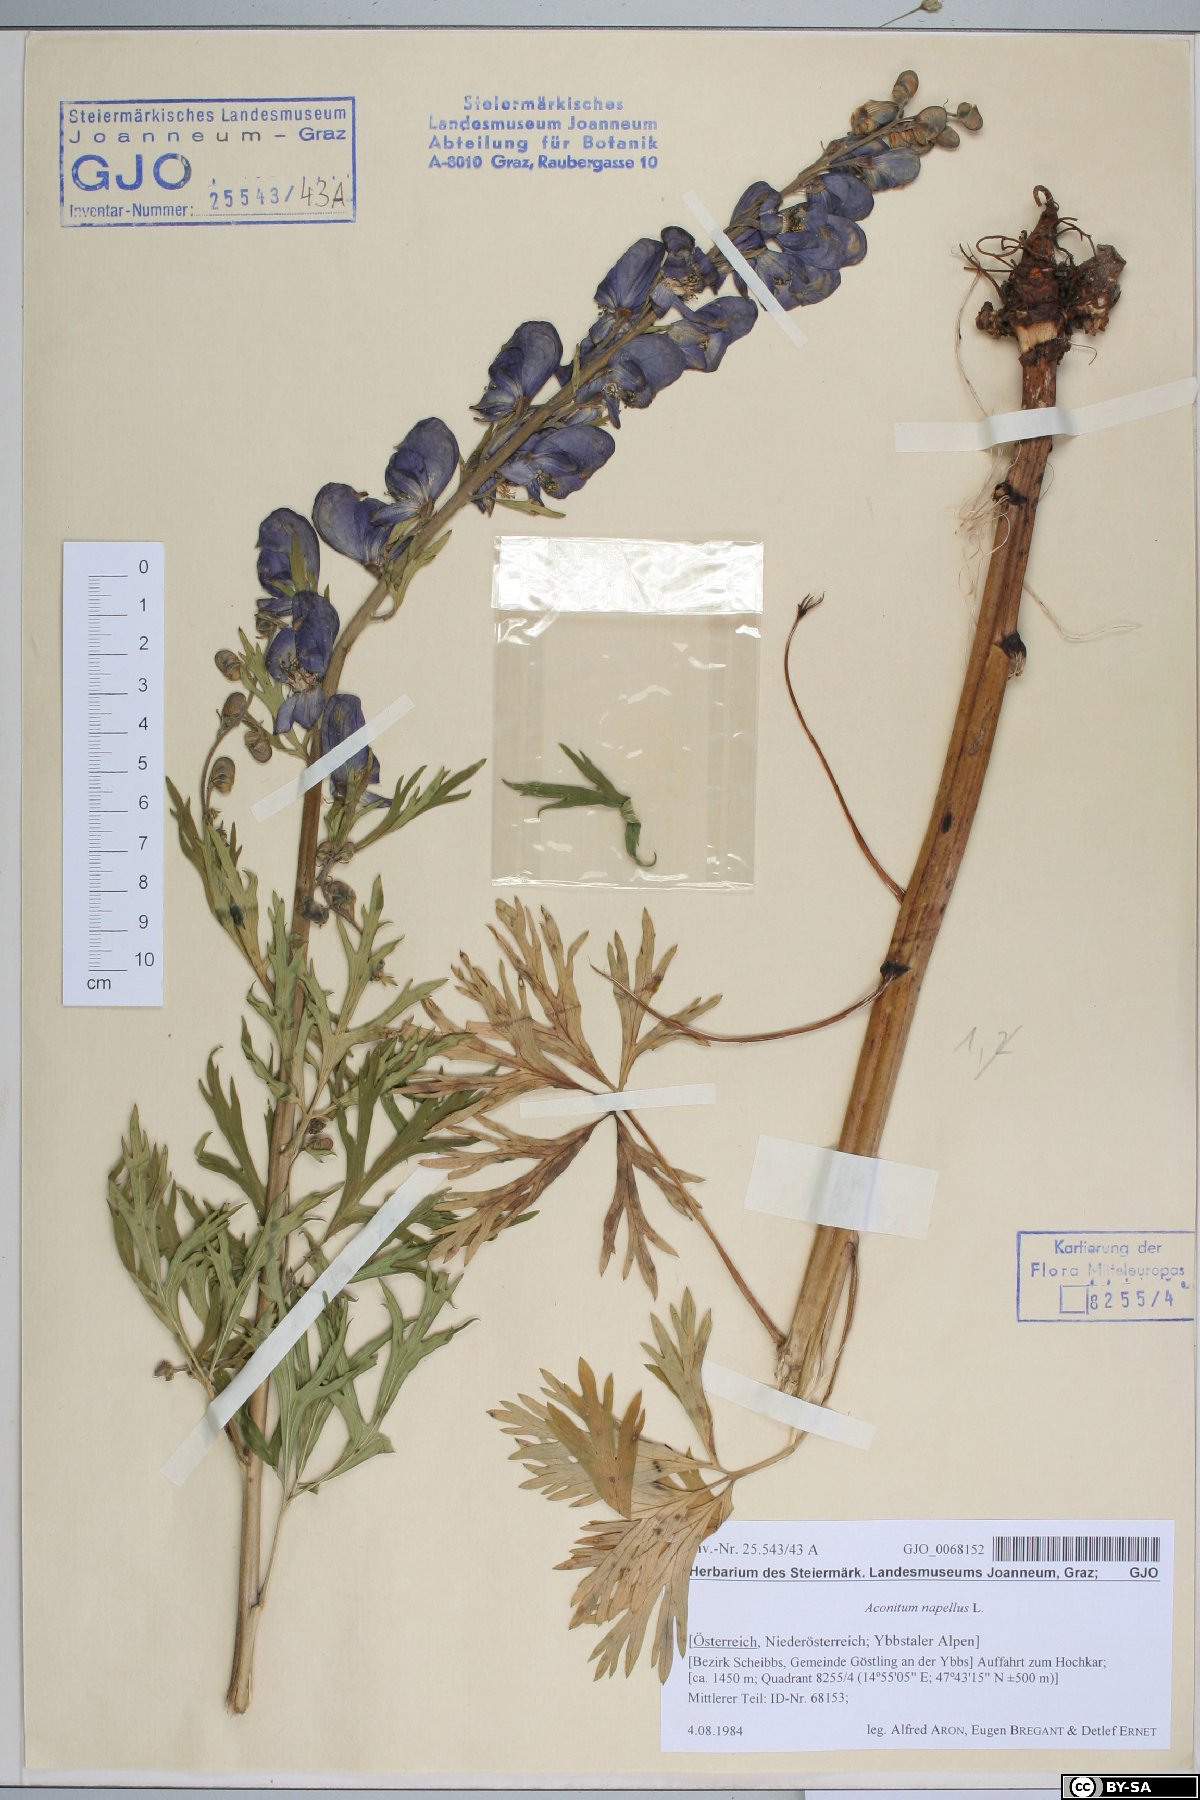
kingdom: Plantae
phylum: Tracheophyta
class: Magnoliopsida
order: Ranunculales
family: Ranunculaceae
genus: Aconitum
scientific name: Aconitum napellus
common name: Garden monkshood
